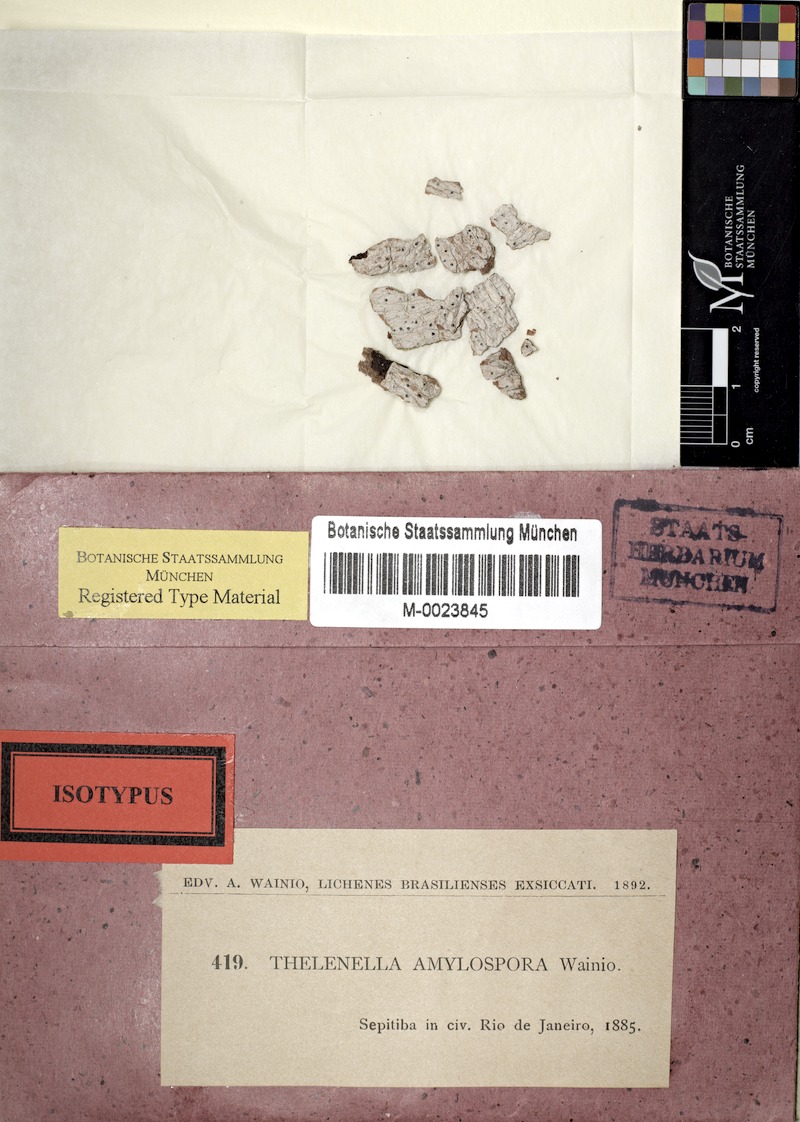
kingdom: Fungi
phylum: Ascomycota
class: Dothideomycetes
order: Trypetheliales
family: Trypetheliaceae
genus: Dictyomeridium
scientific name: Dictyomeridium amylosporum
